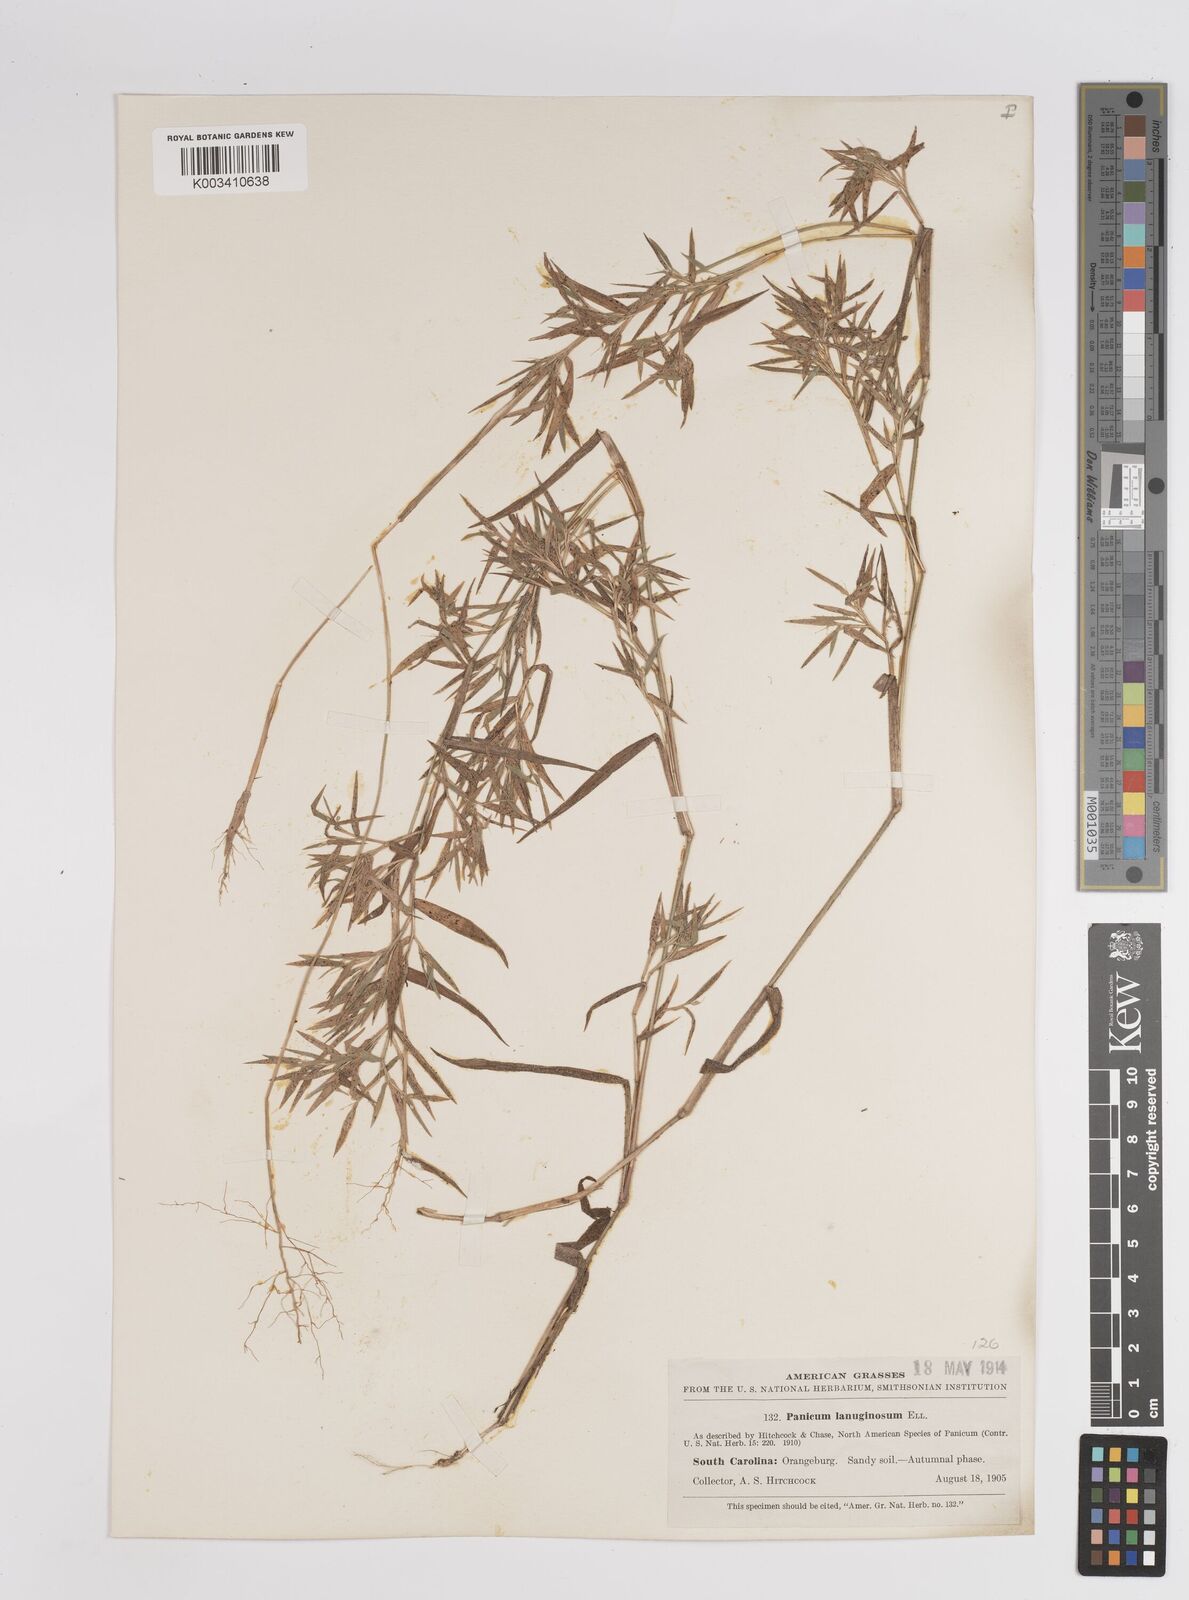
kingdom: Plantae
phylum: Tracheophyta
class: Liliopsida
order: Poales
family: Poaceae
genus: Dichanthelium
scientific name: Dichanthelium lanuginosum
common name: Woolly panicgrass
